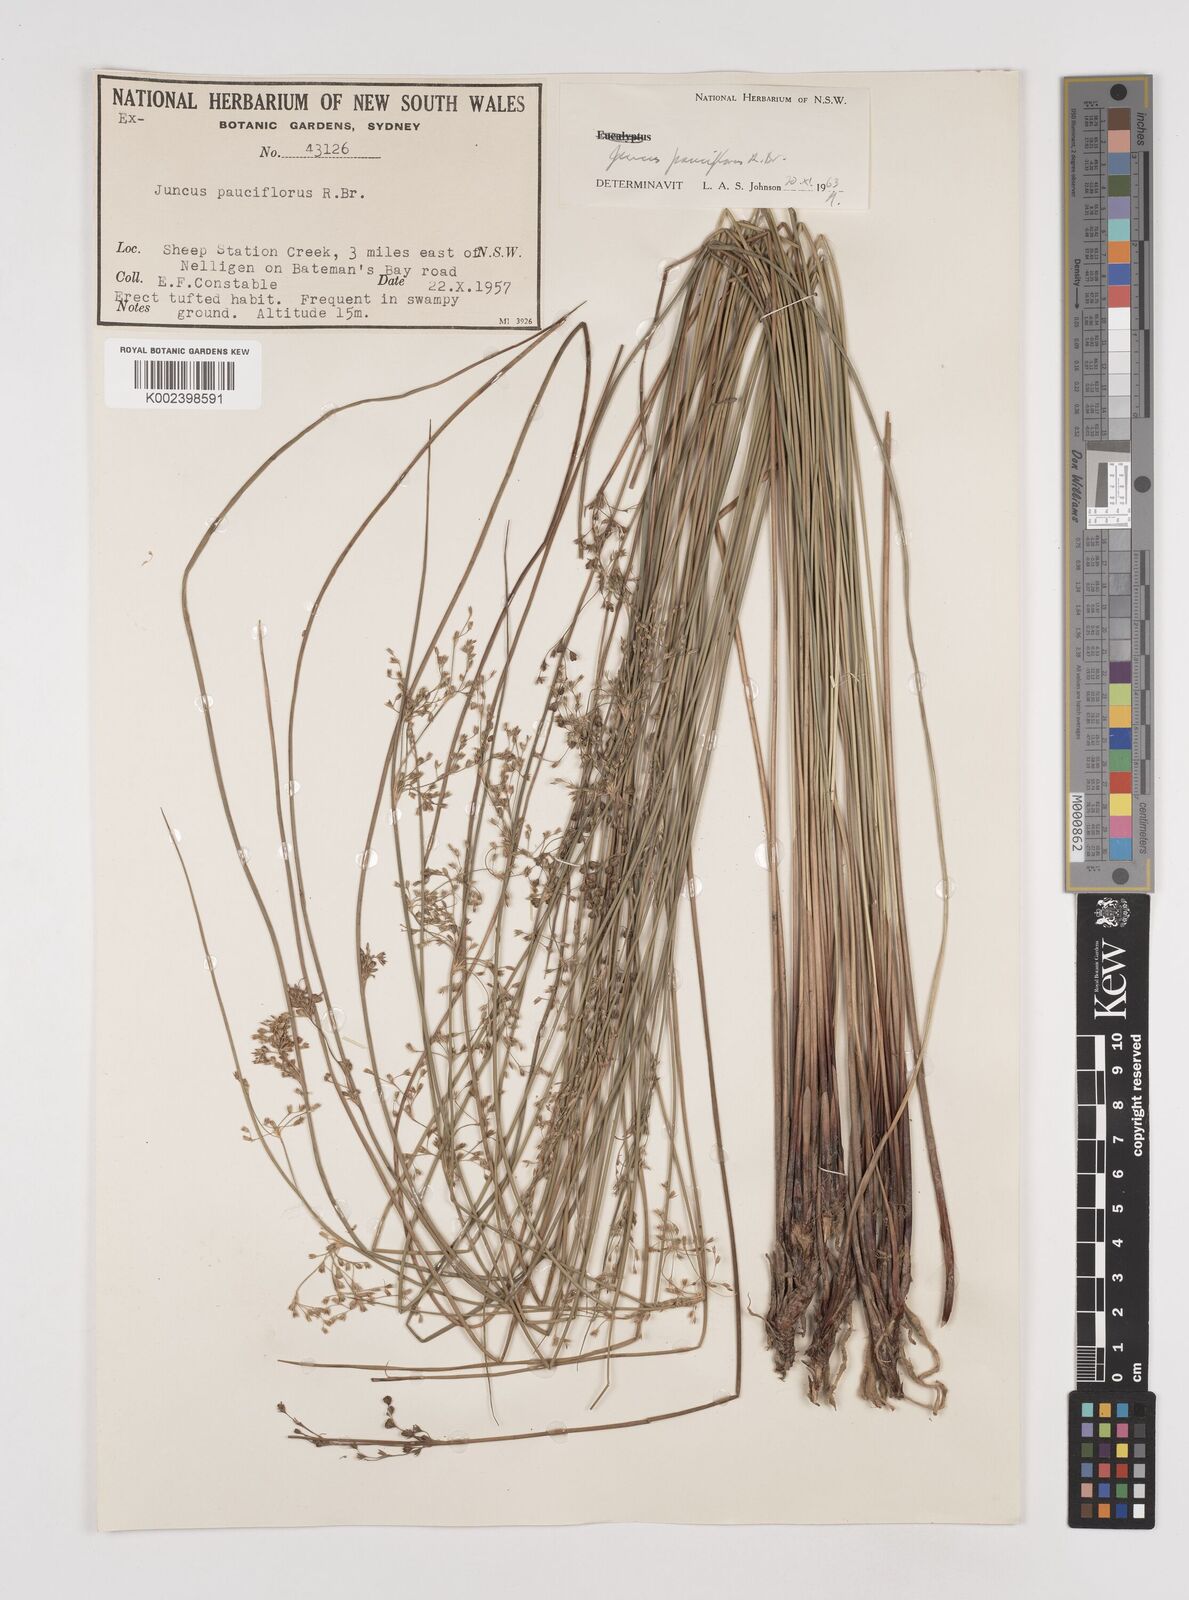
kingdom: Plantae
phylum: Tracheophyta
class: Liliopsida
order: Poales
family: Juncaceae
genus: Juncus
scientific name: Juncus pauciflorus
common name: Loose-flowered rush
